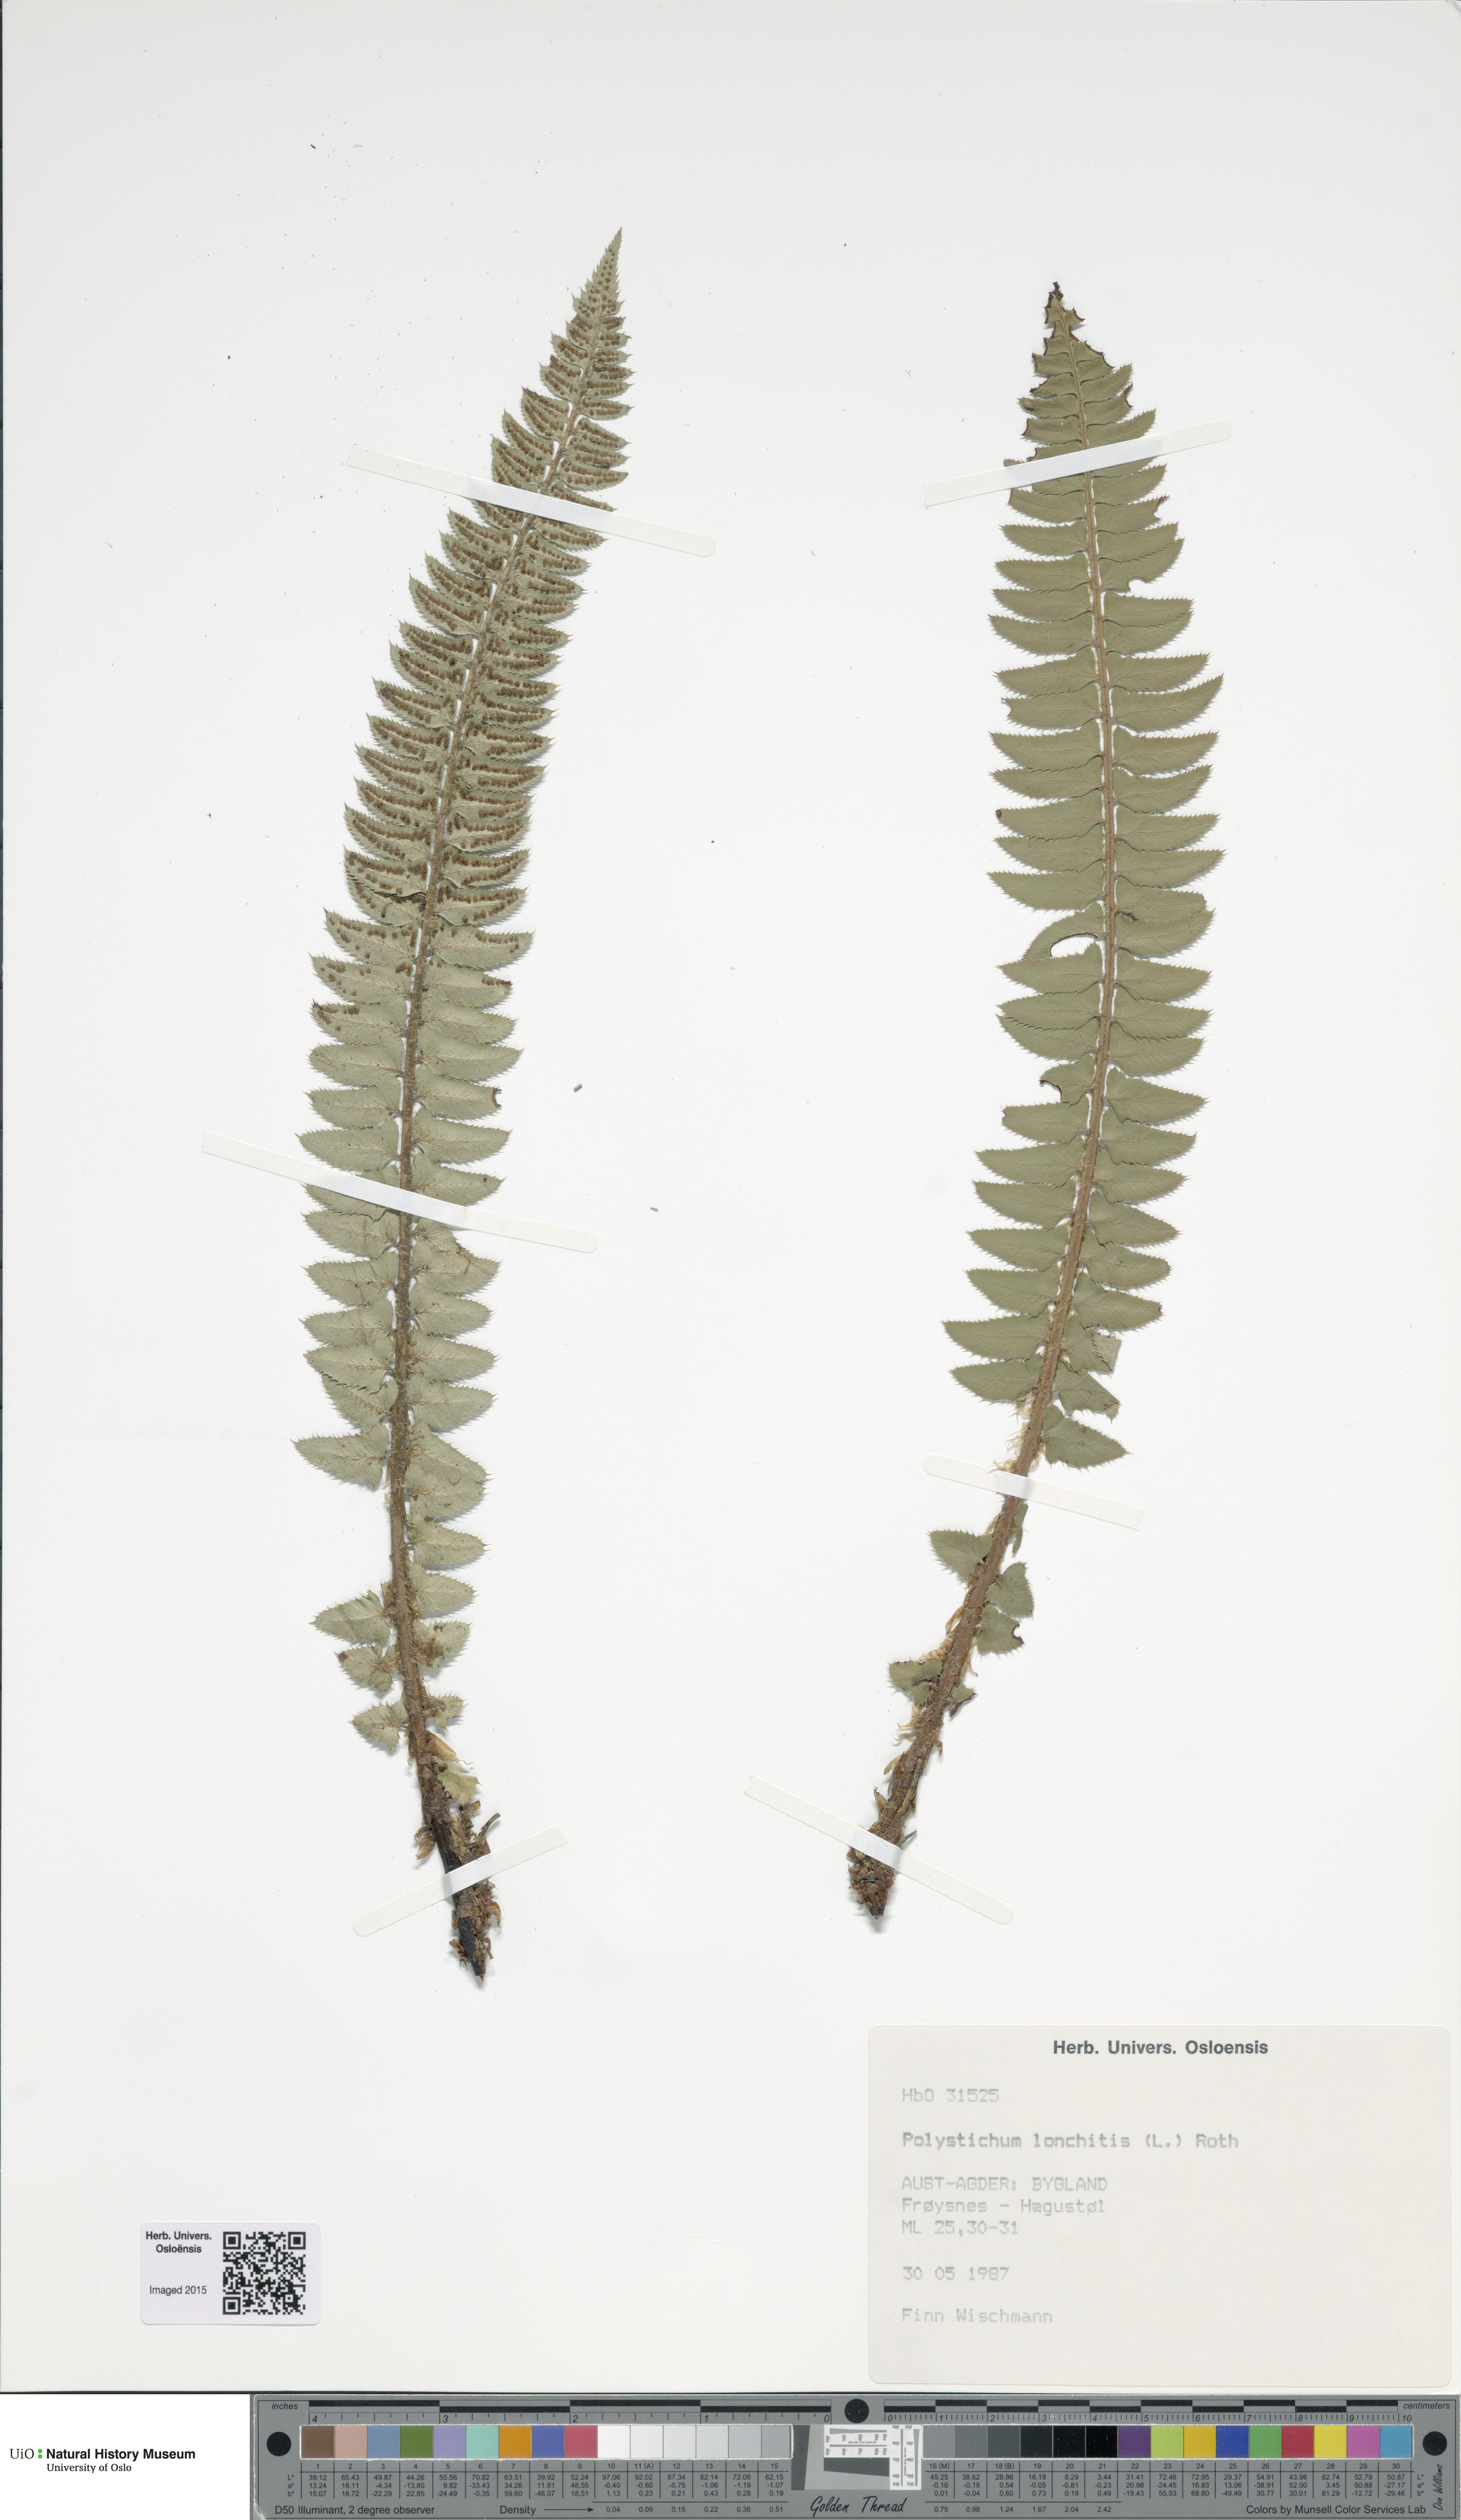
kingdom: Plantae
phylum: Tracheophyta
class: Polypodiopsida
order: Polypodiales
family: Dryopteridaceae
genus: Polystichum
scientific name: Polystichum lonchitis
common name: Holly fern
